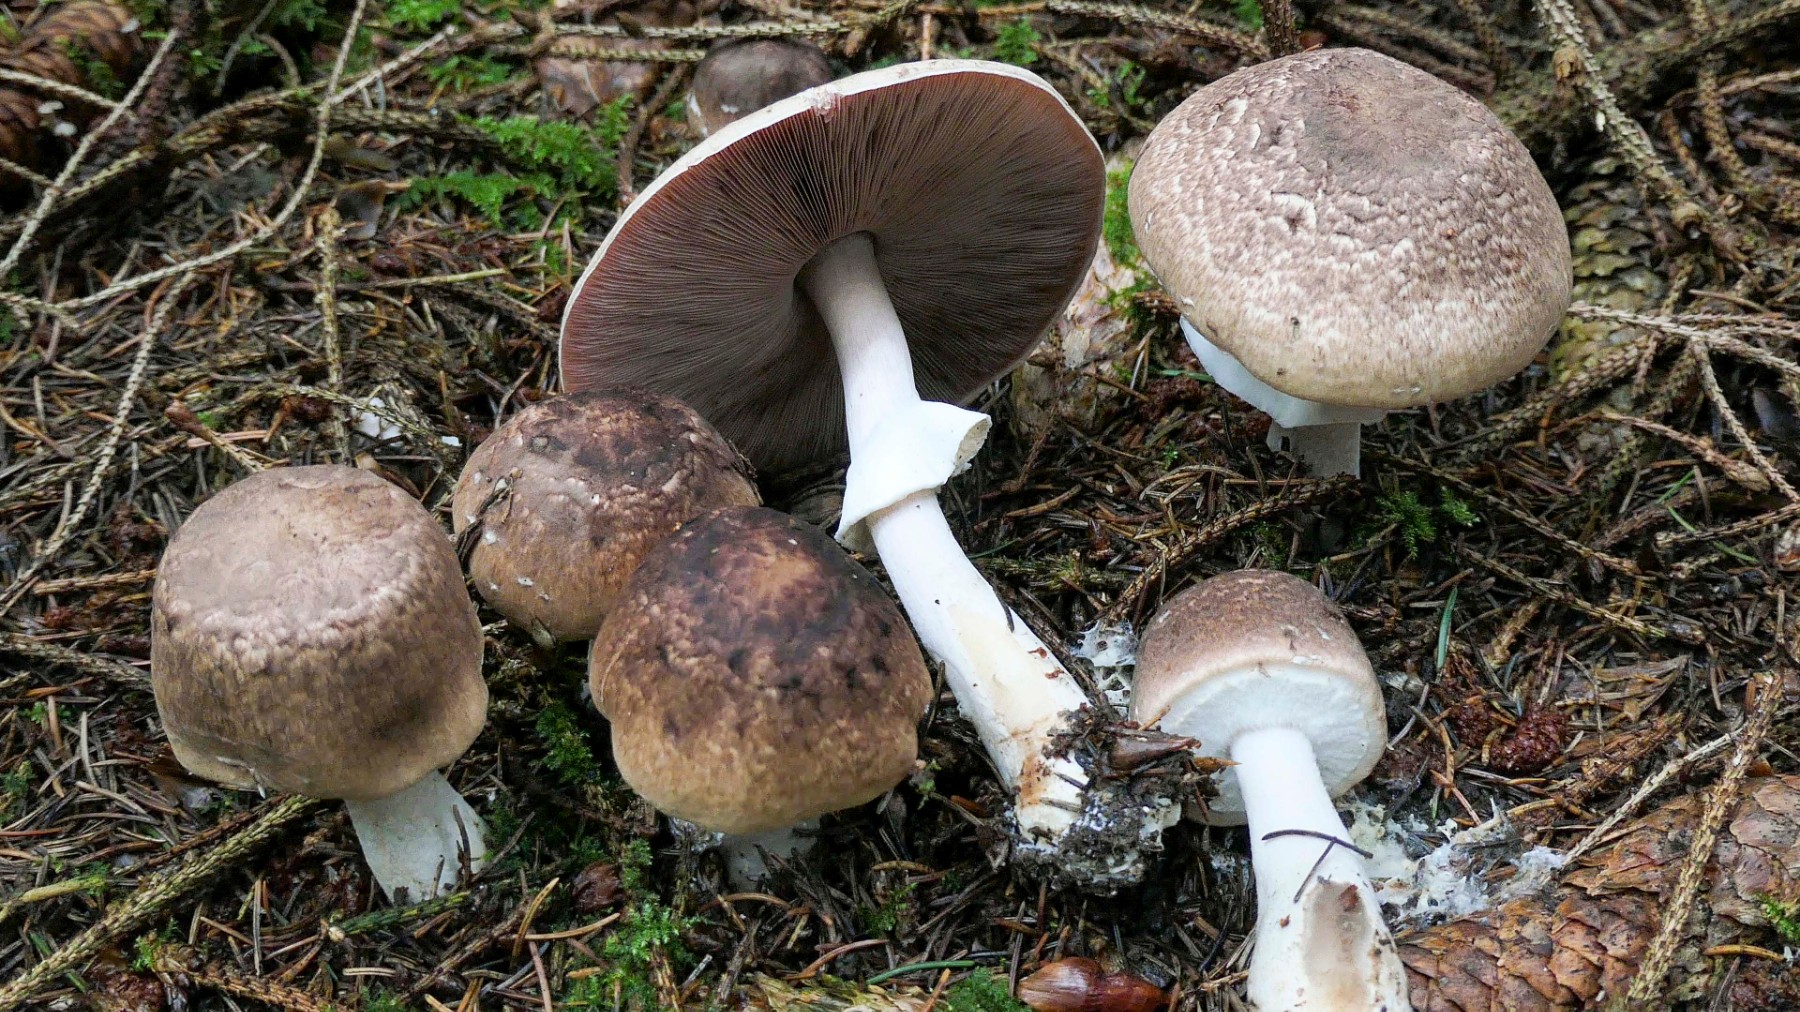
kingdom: Fungi
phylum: Basidiomycota
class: Agaricomycetes
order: Agaricales
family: Agaricaceae
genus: Agaricus
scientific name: Agaricus impudicus
